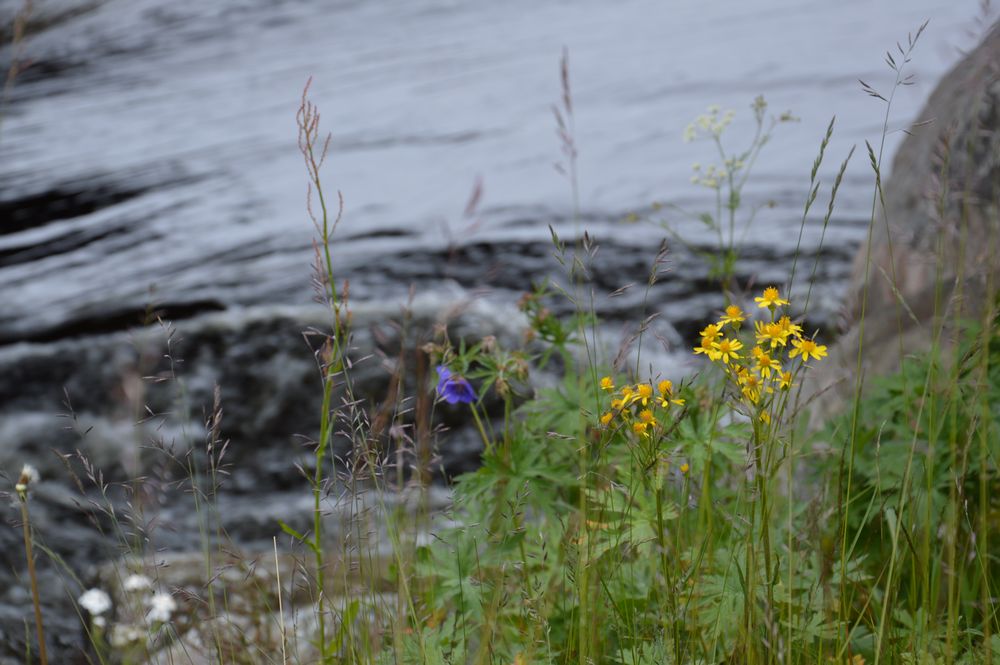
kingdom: Plantae
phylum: Tracheophyta
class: Magnoliopsida
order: Asterales
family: Asteraceae
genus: Tephroseris
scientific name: Tephroseris integrifolia
